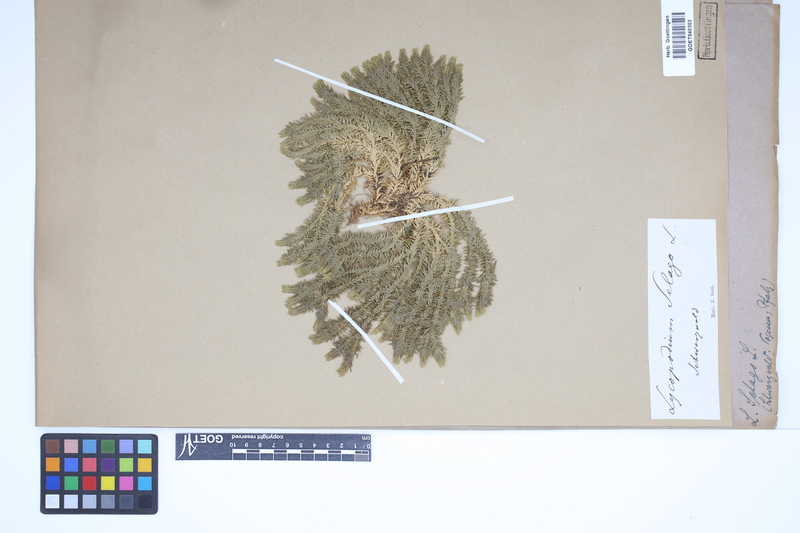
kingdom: Plantae
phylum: Tracheophyta
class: Lycopodiopsida
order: Lycopodiales
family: Lycopodiaceae
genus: Huperzia
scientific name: Huperzia selago
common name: Northern firmoss
